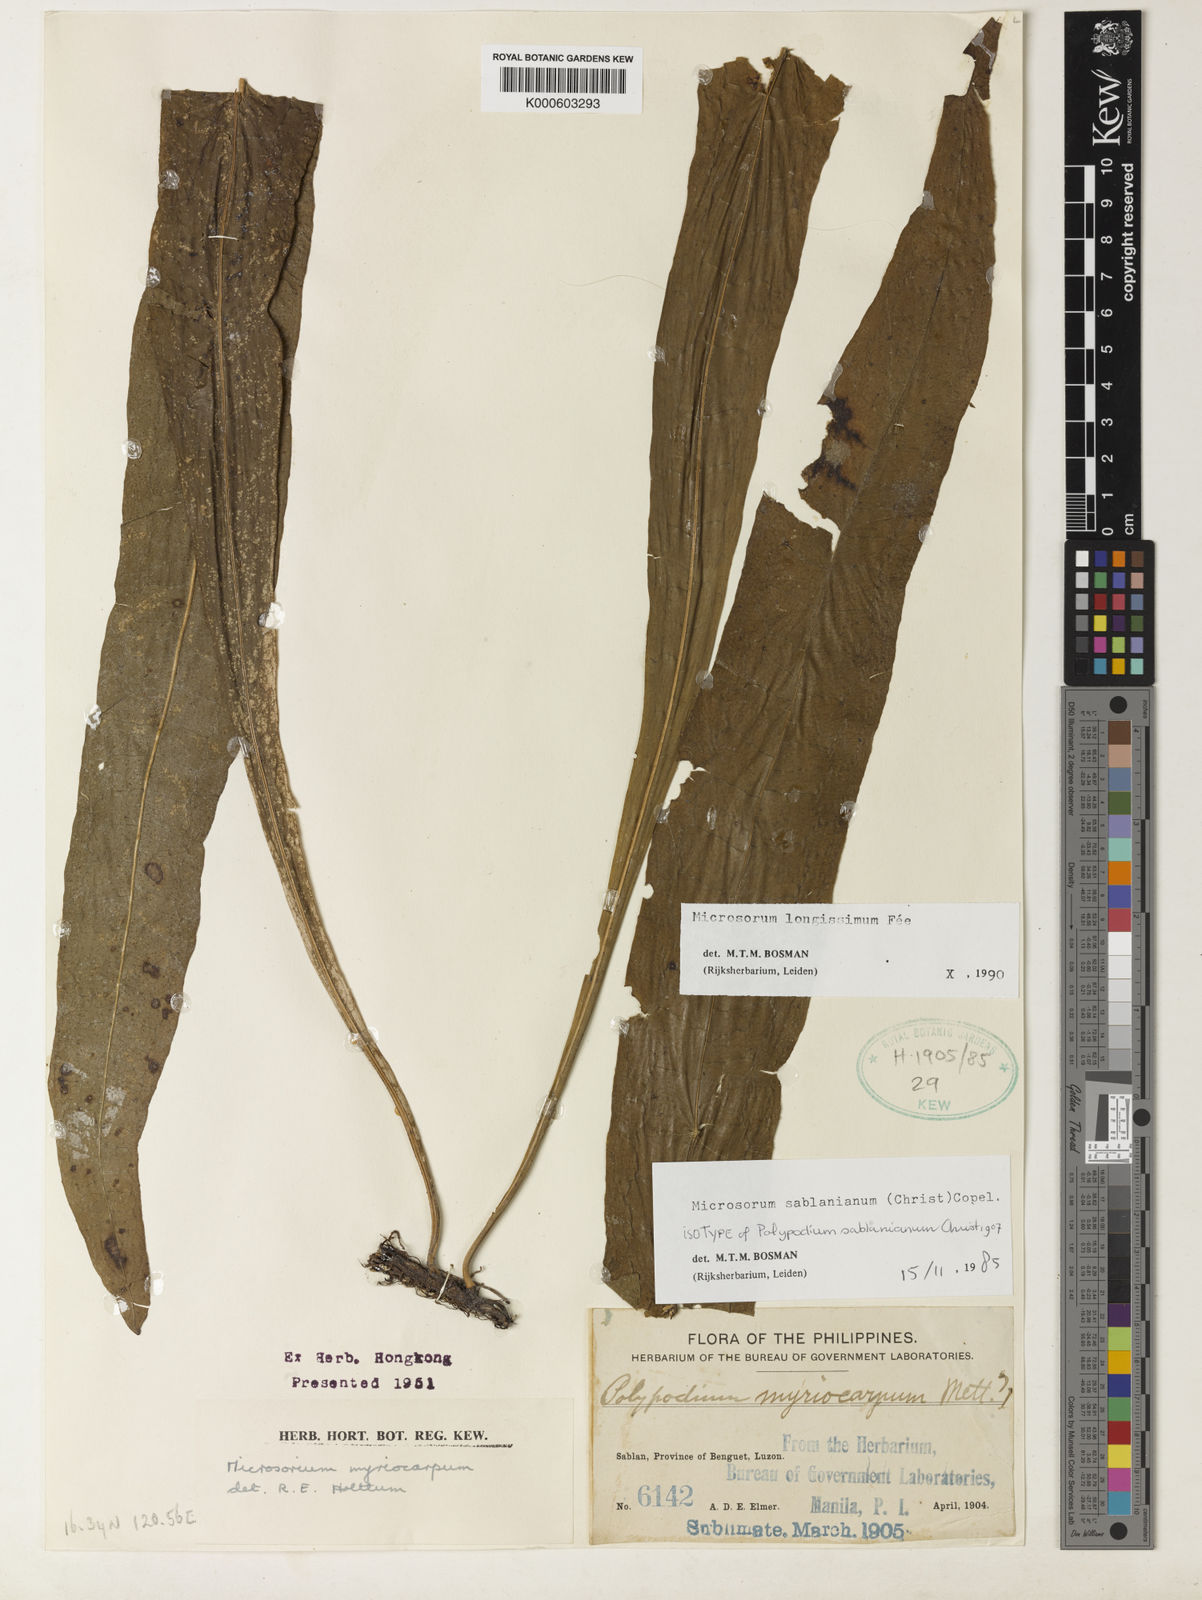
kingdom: Plantae
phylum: Tracheophyta
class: Polypodiopsida
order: Polypodiales
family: Polypodiaceae
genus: Microsorum
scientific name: Microsorum
